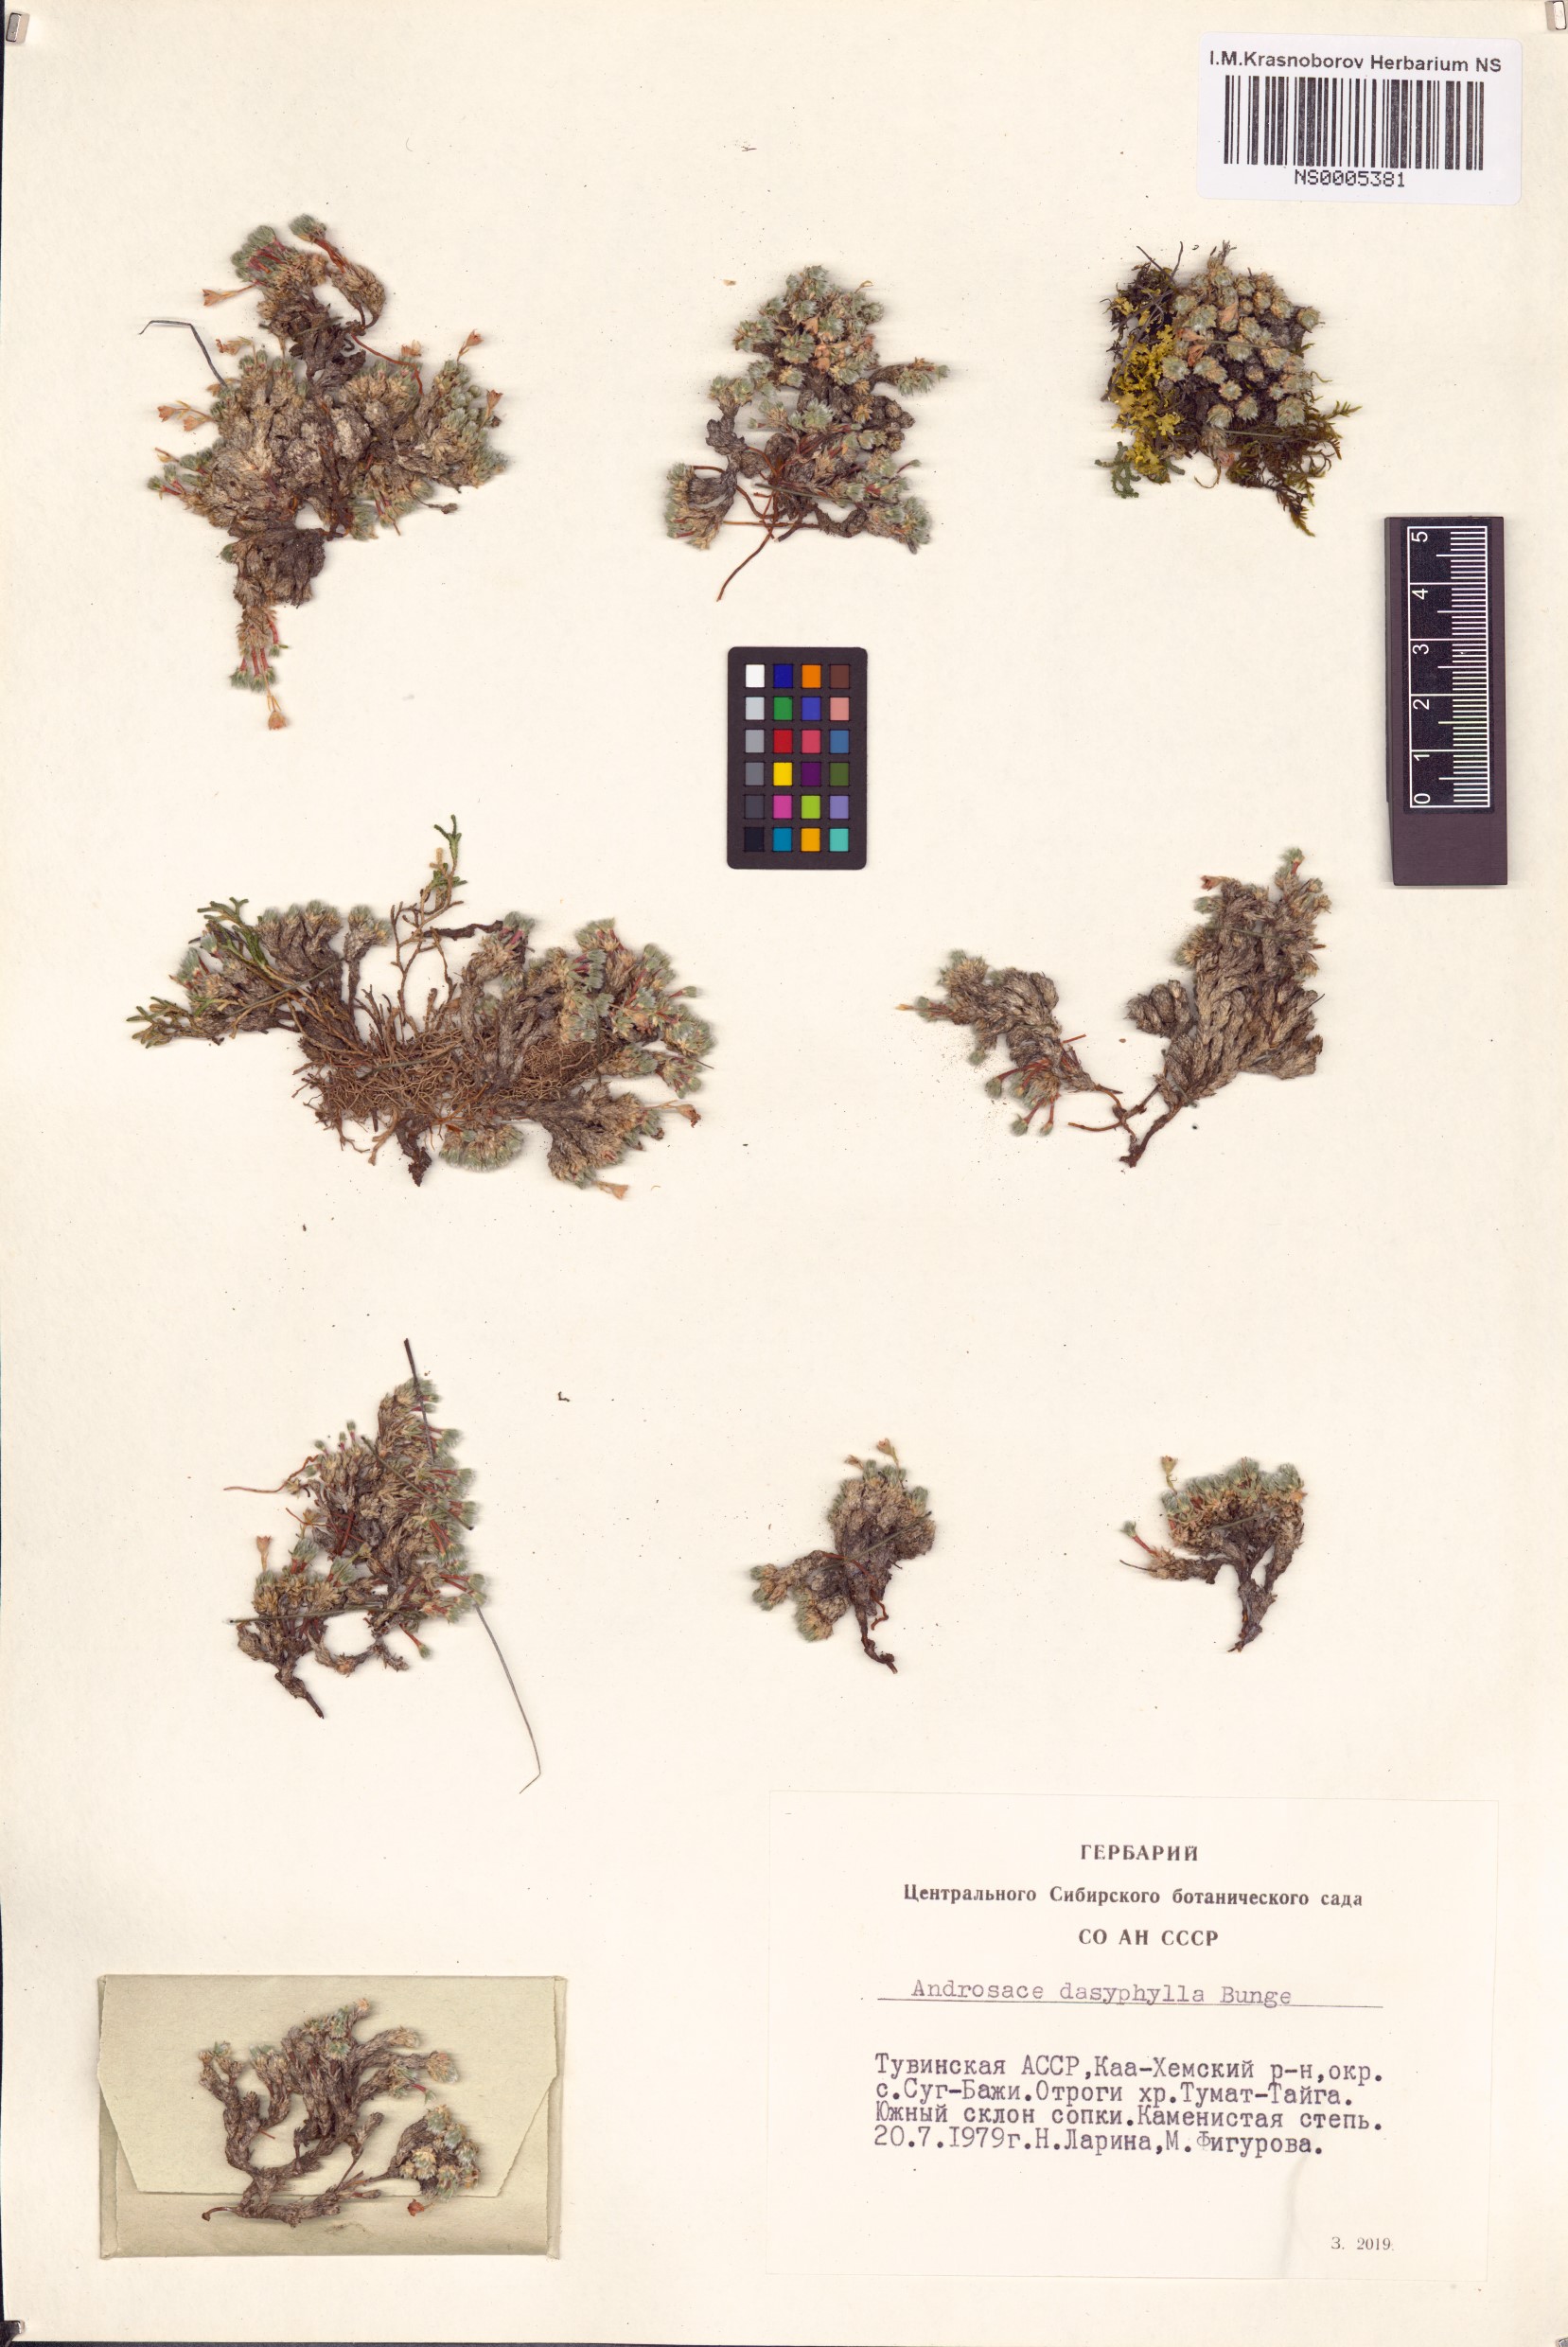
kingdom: Plantae
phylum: Tracheophyta
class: Magnoliopsida
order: Ericales
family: Primulaceae
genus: Androsace
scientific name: Androsace dasyphylla
